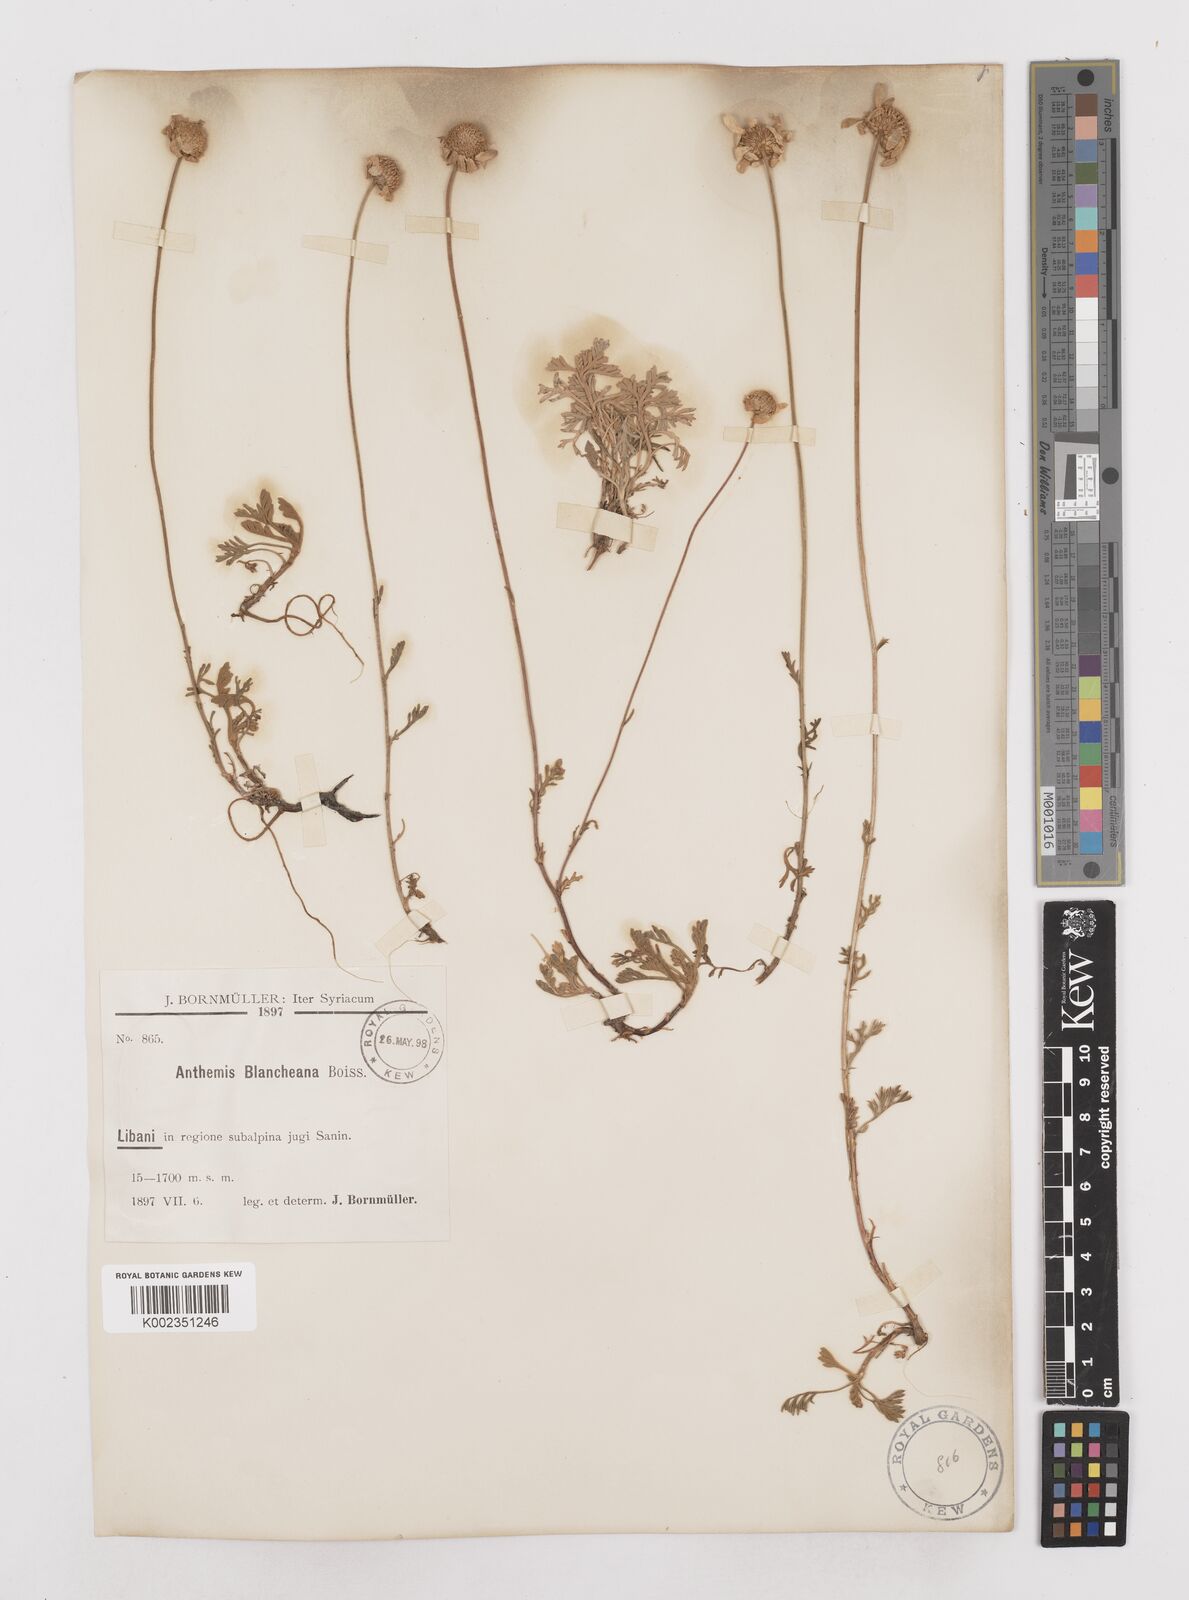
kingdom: Plantae
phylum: Tracheophyta
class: Magnoliopsida
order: Asterales
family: Asteraceae
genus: Anthemis
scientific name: Anthemis cretica
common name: Mountain dog-daisy
